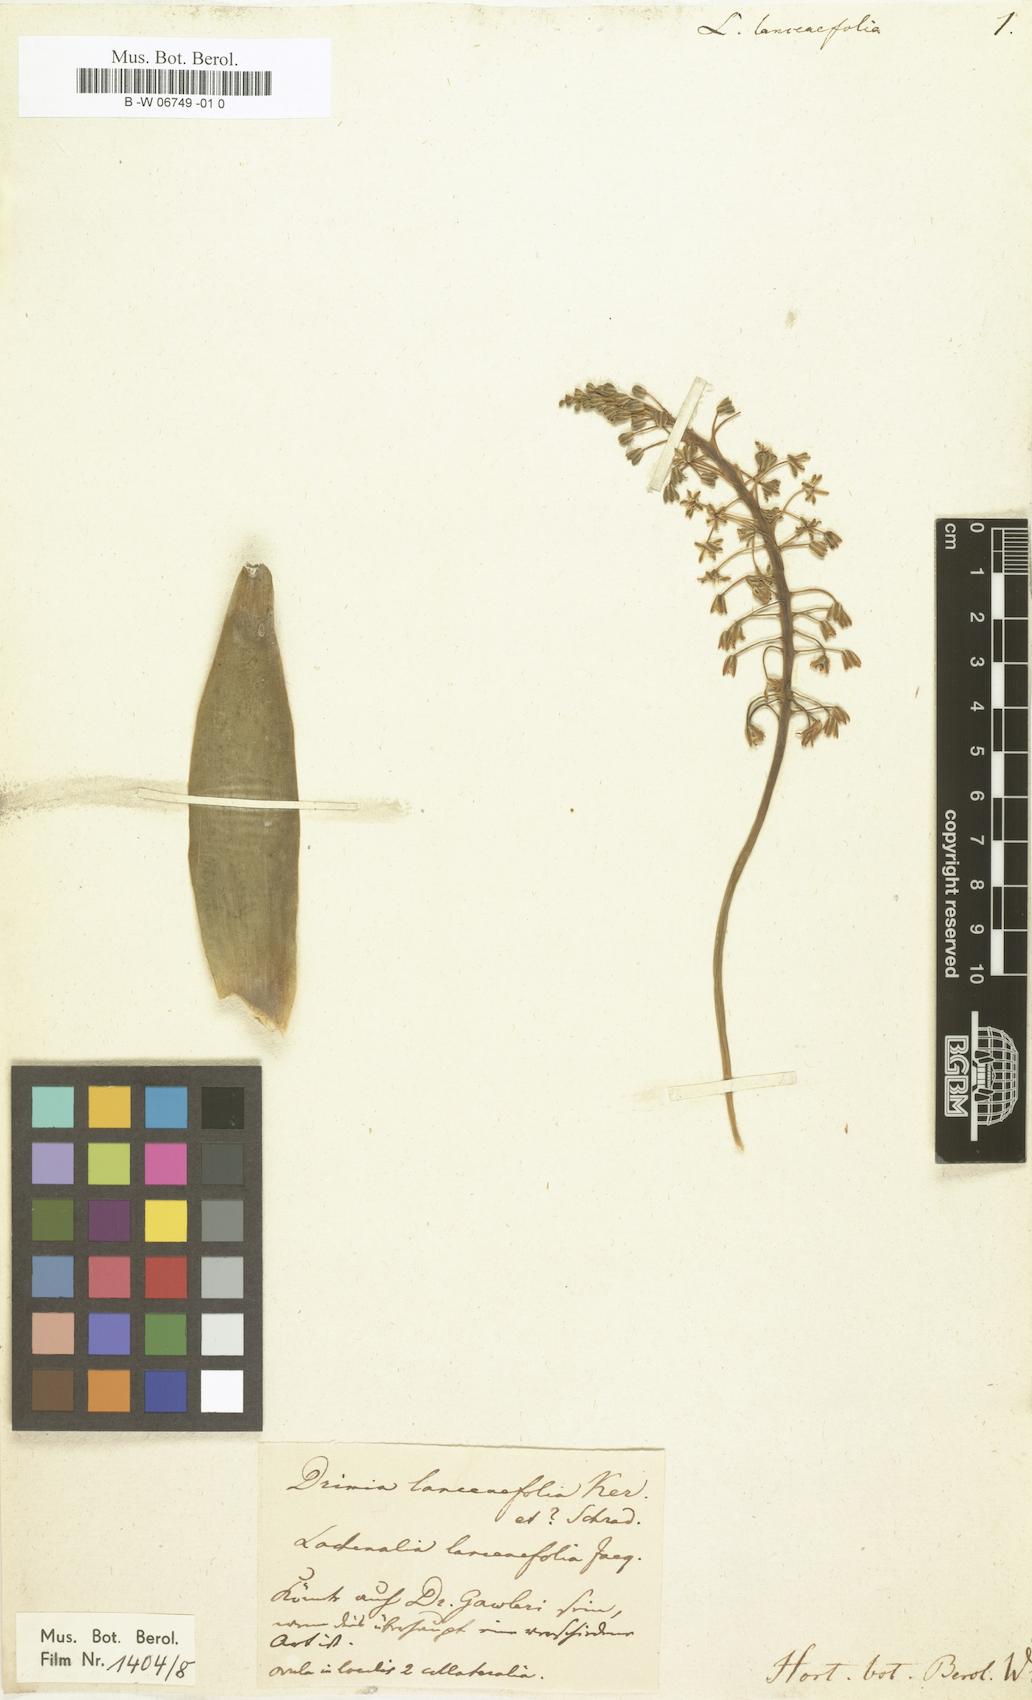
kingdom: Plantae
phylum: Tracheophyta
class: Liliopsida
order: Asparagales
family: Hyacinthaceae
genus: Lachenalia
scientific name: Lachenalia lanceaefolia
